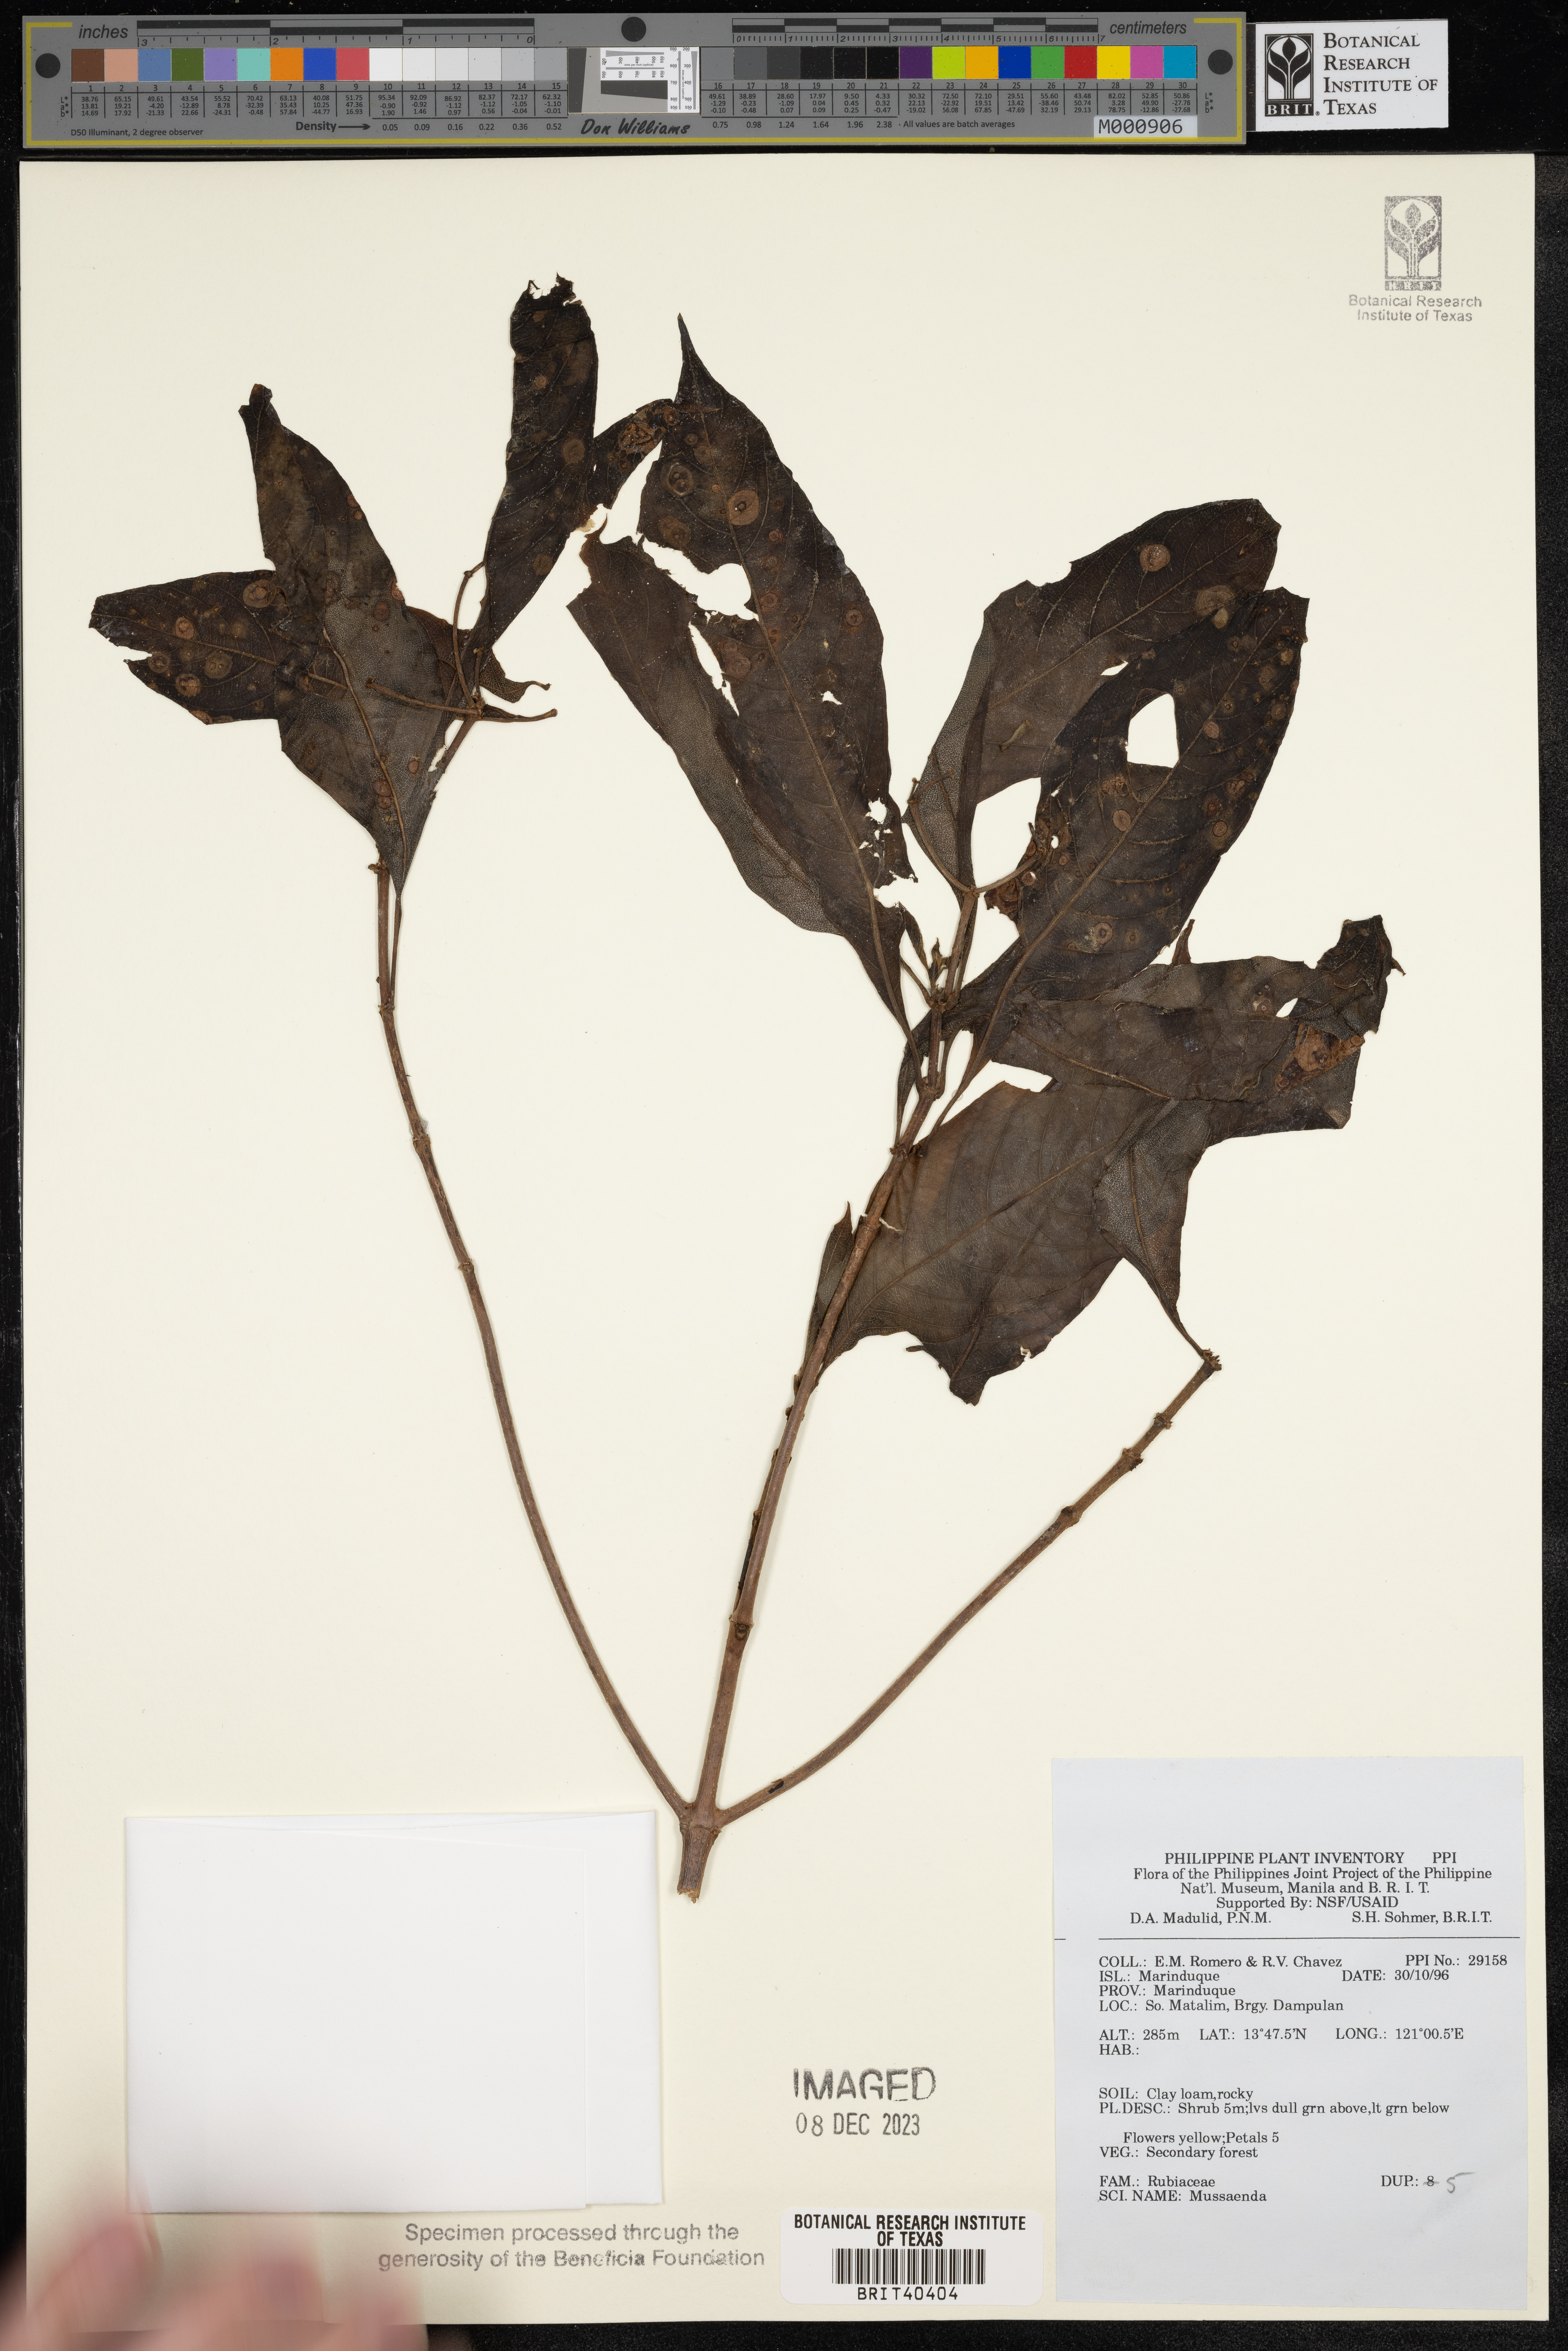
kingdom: Plantae
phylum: Tracheophyta
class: Magnoliopsida
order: Gentianales
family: Rubiaceae
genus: Mussaenda
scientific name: Mussaenda
